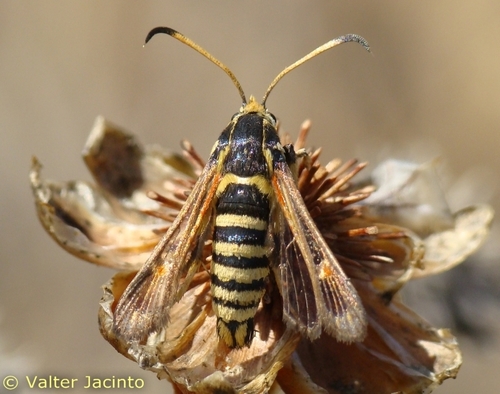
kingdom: Animalia
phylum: Arthropoda
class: Insecta
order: Lepidoptera
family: Sesiidae
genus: Bembecia
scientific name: Bembecia ichneumoniformis
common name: Six-belted clearwing
